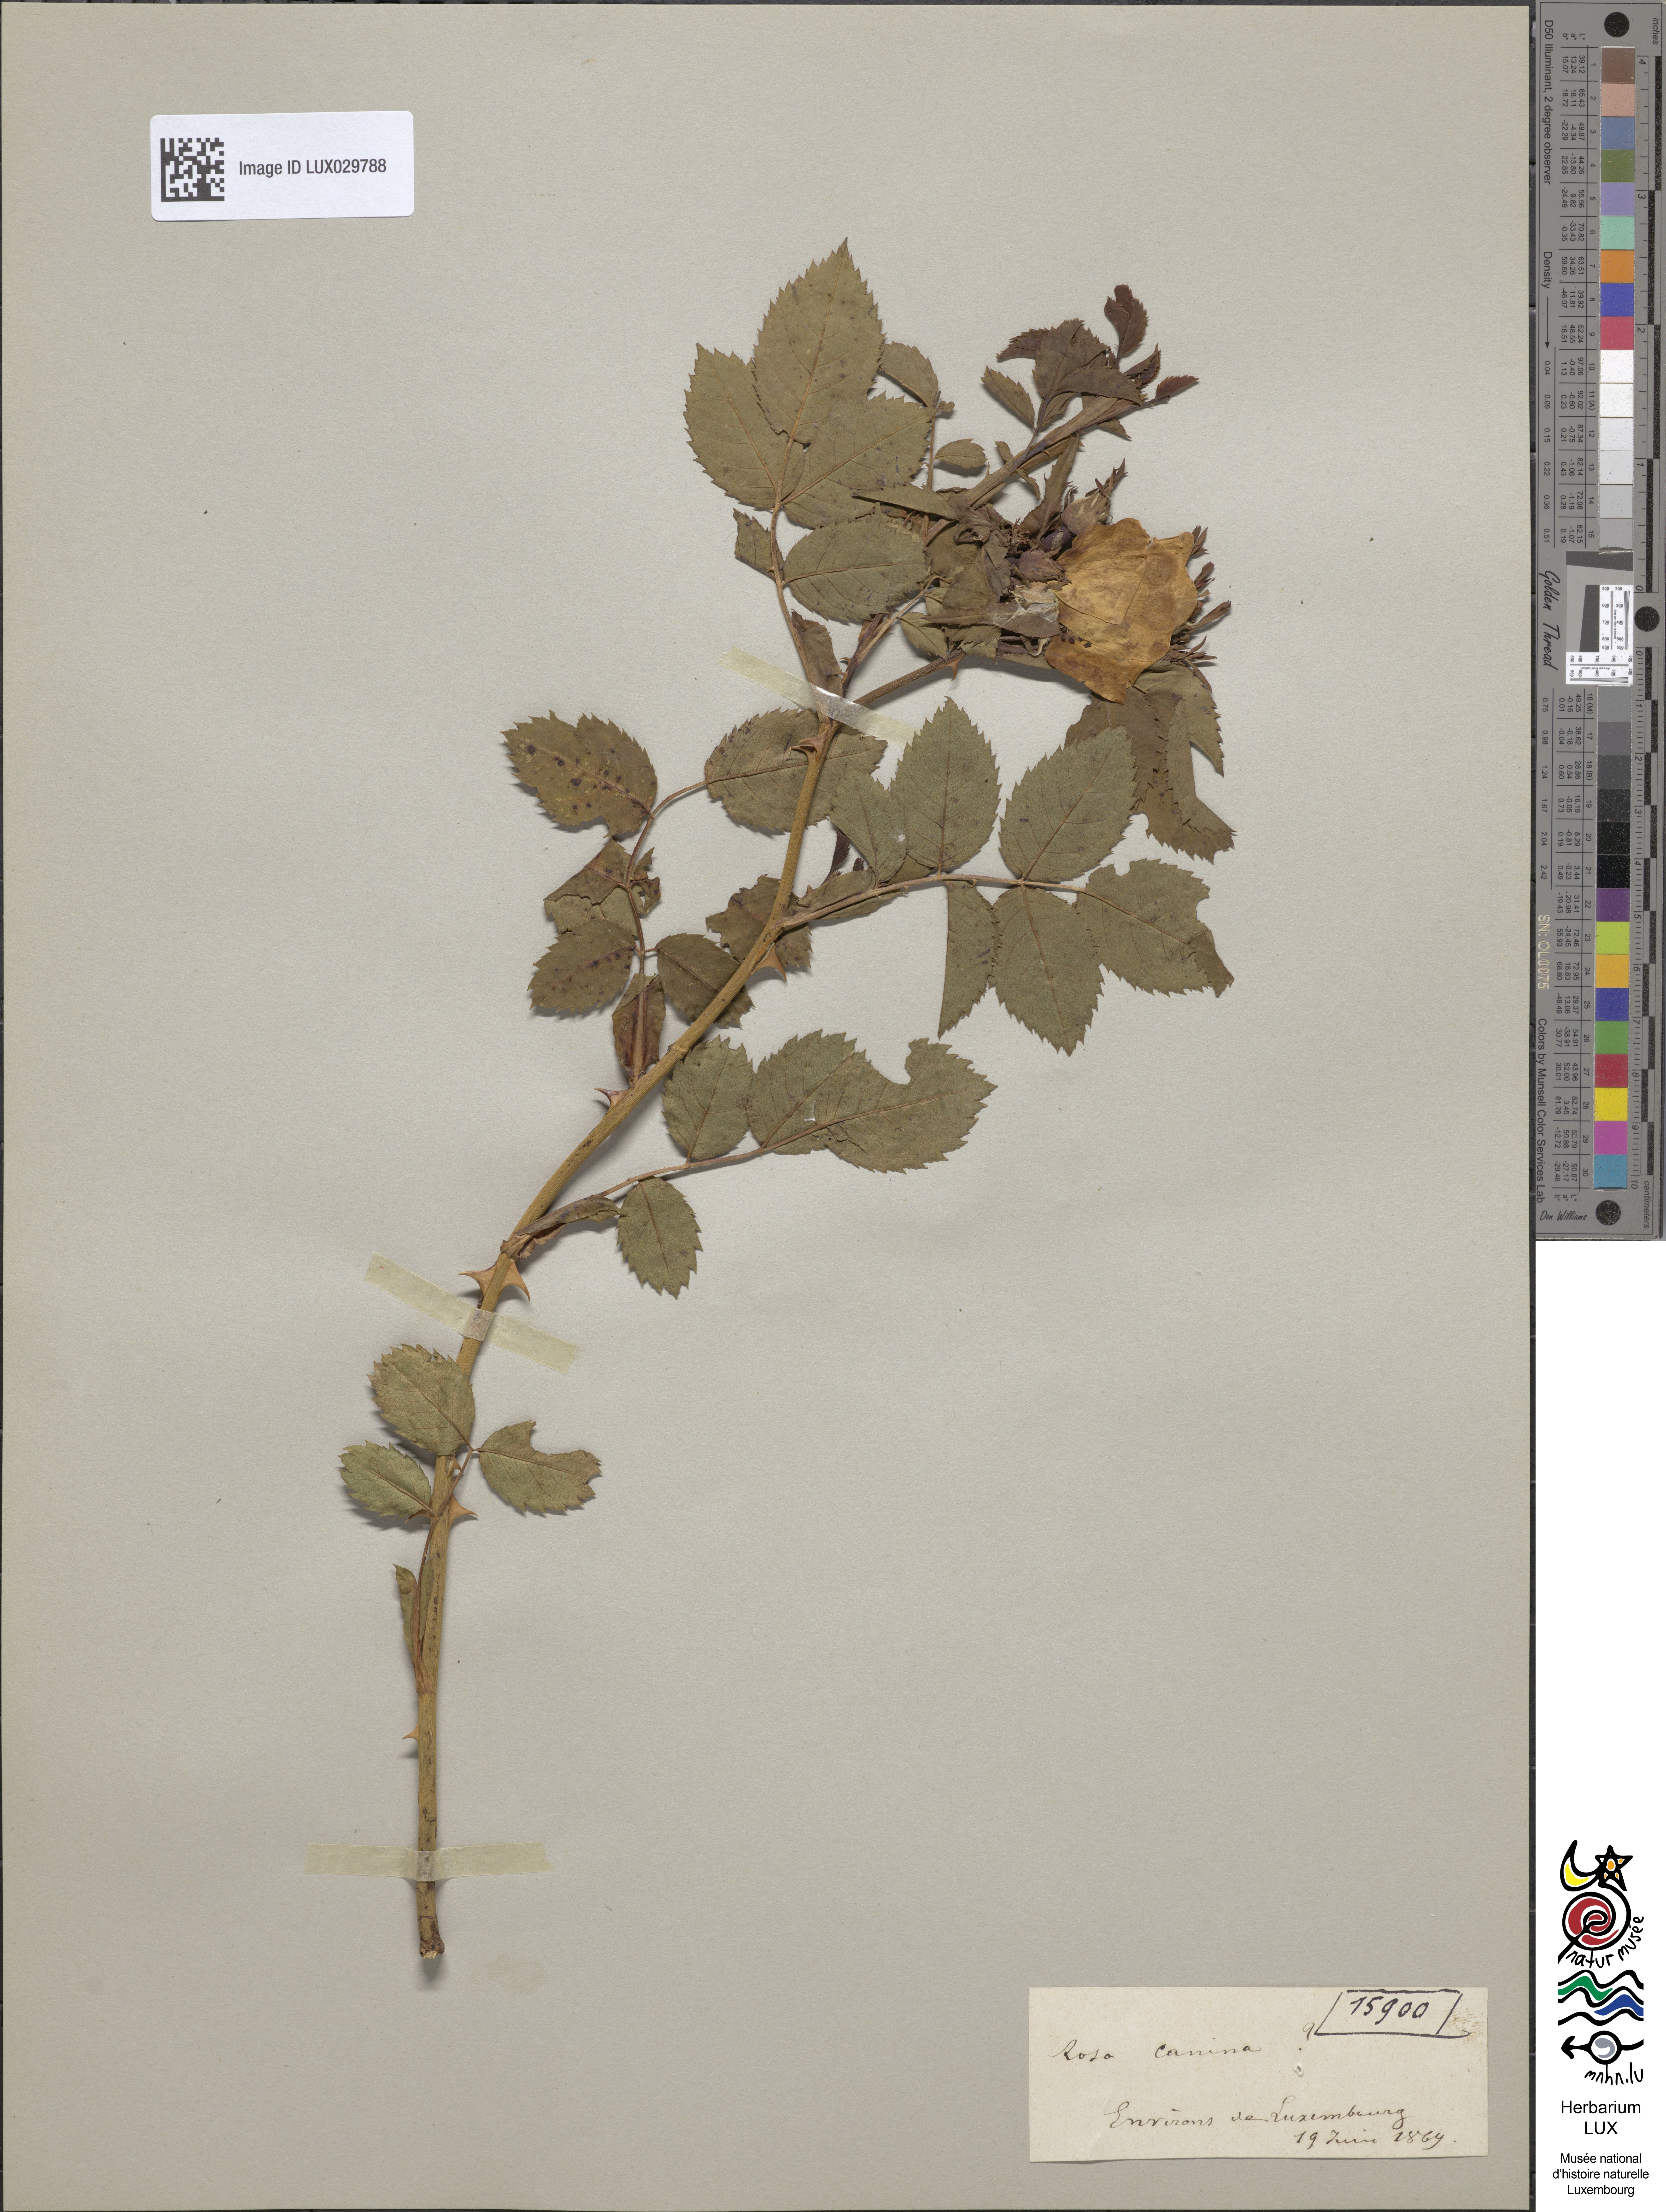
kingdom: Plantae
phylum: Tracheophyta
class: Magnoliopsida
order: Rosales
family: Rosaceae
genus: Rosa
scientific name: Rosa canina
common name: Dog rose
